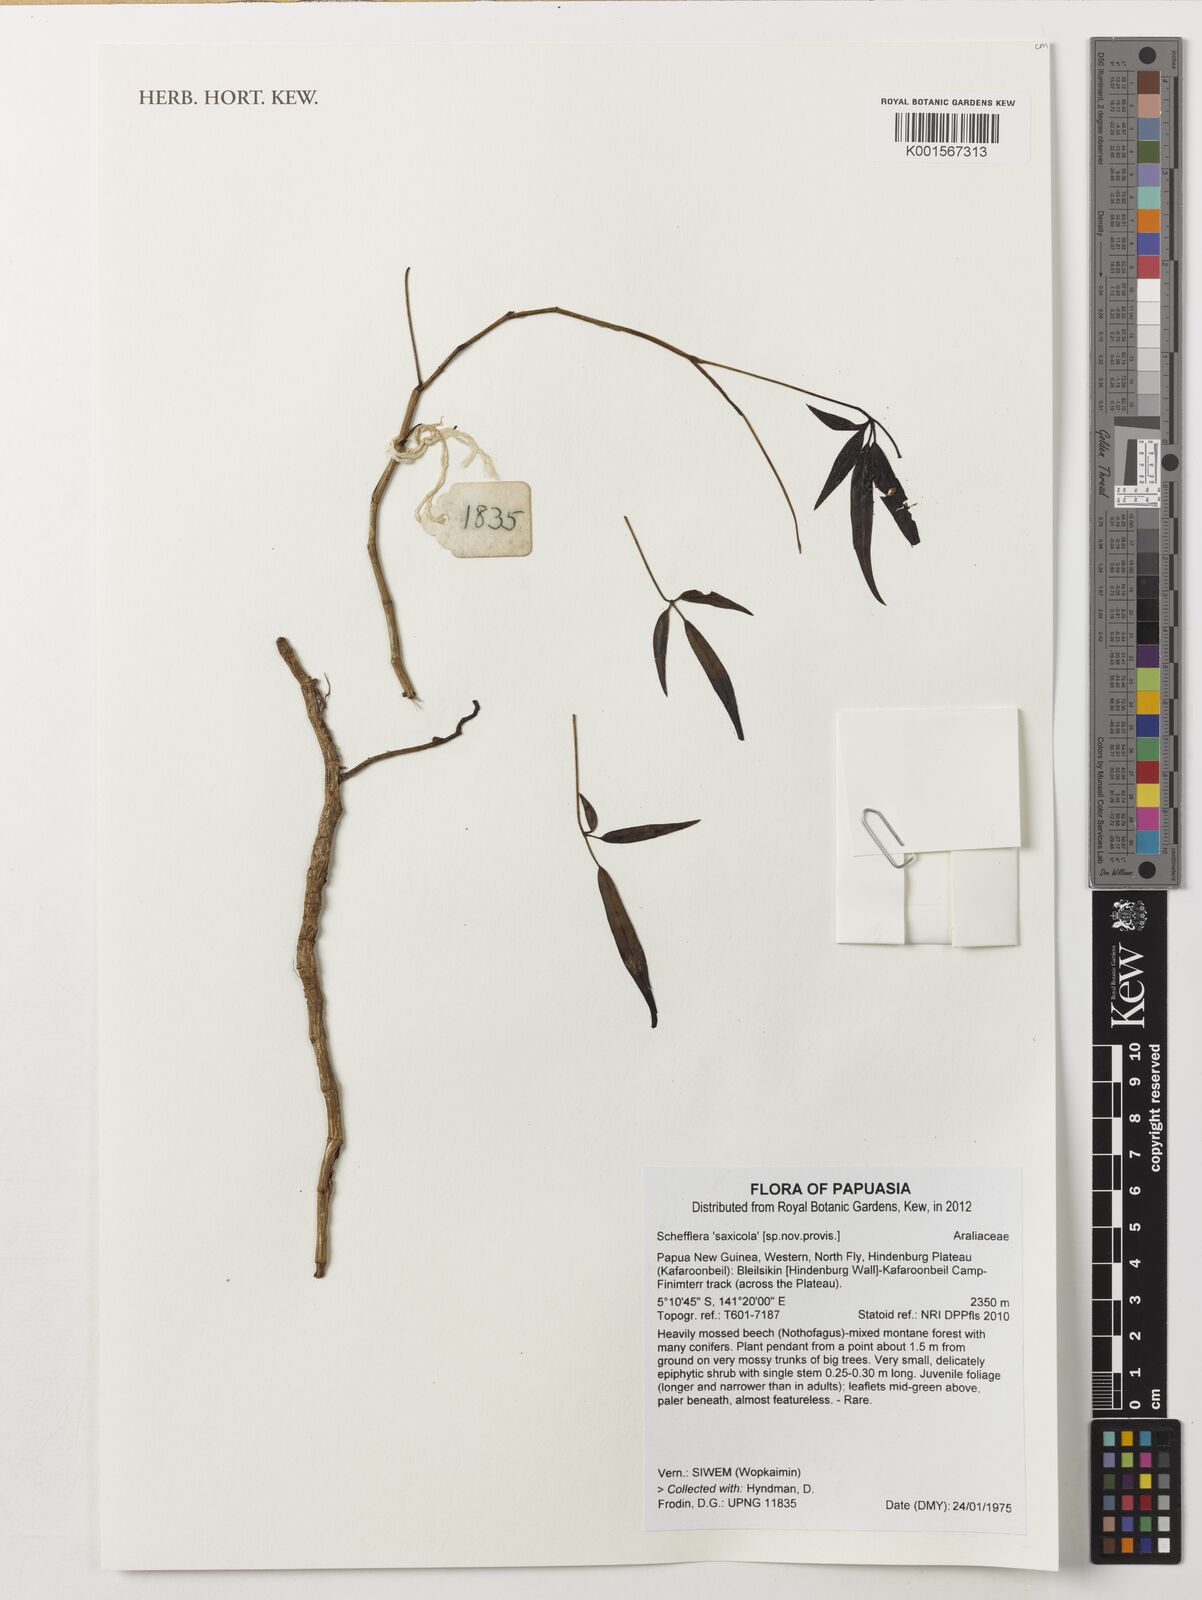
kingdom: Plantae
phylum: Tracheophyta
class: Magnoliopsida
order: Apiales
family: Araliaceae
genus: Schefflera
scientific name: Schefflera
